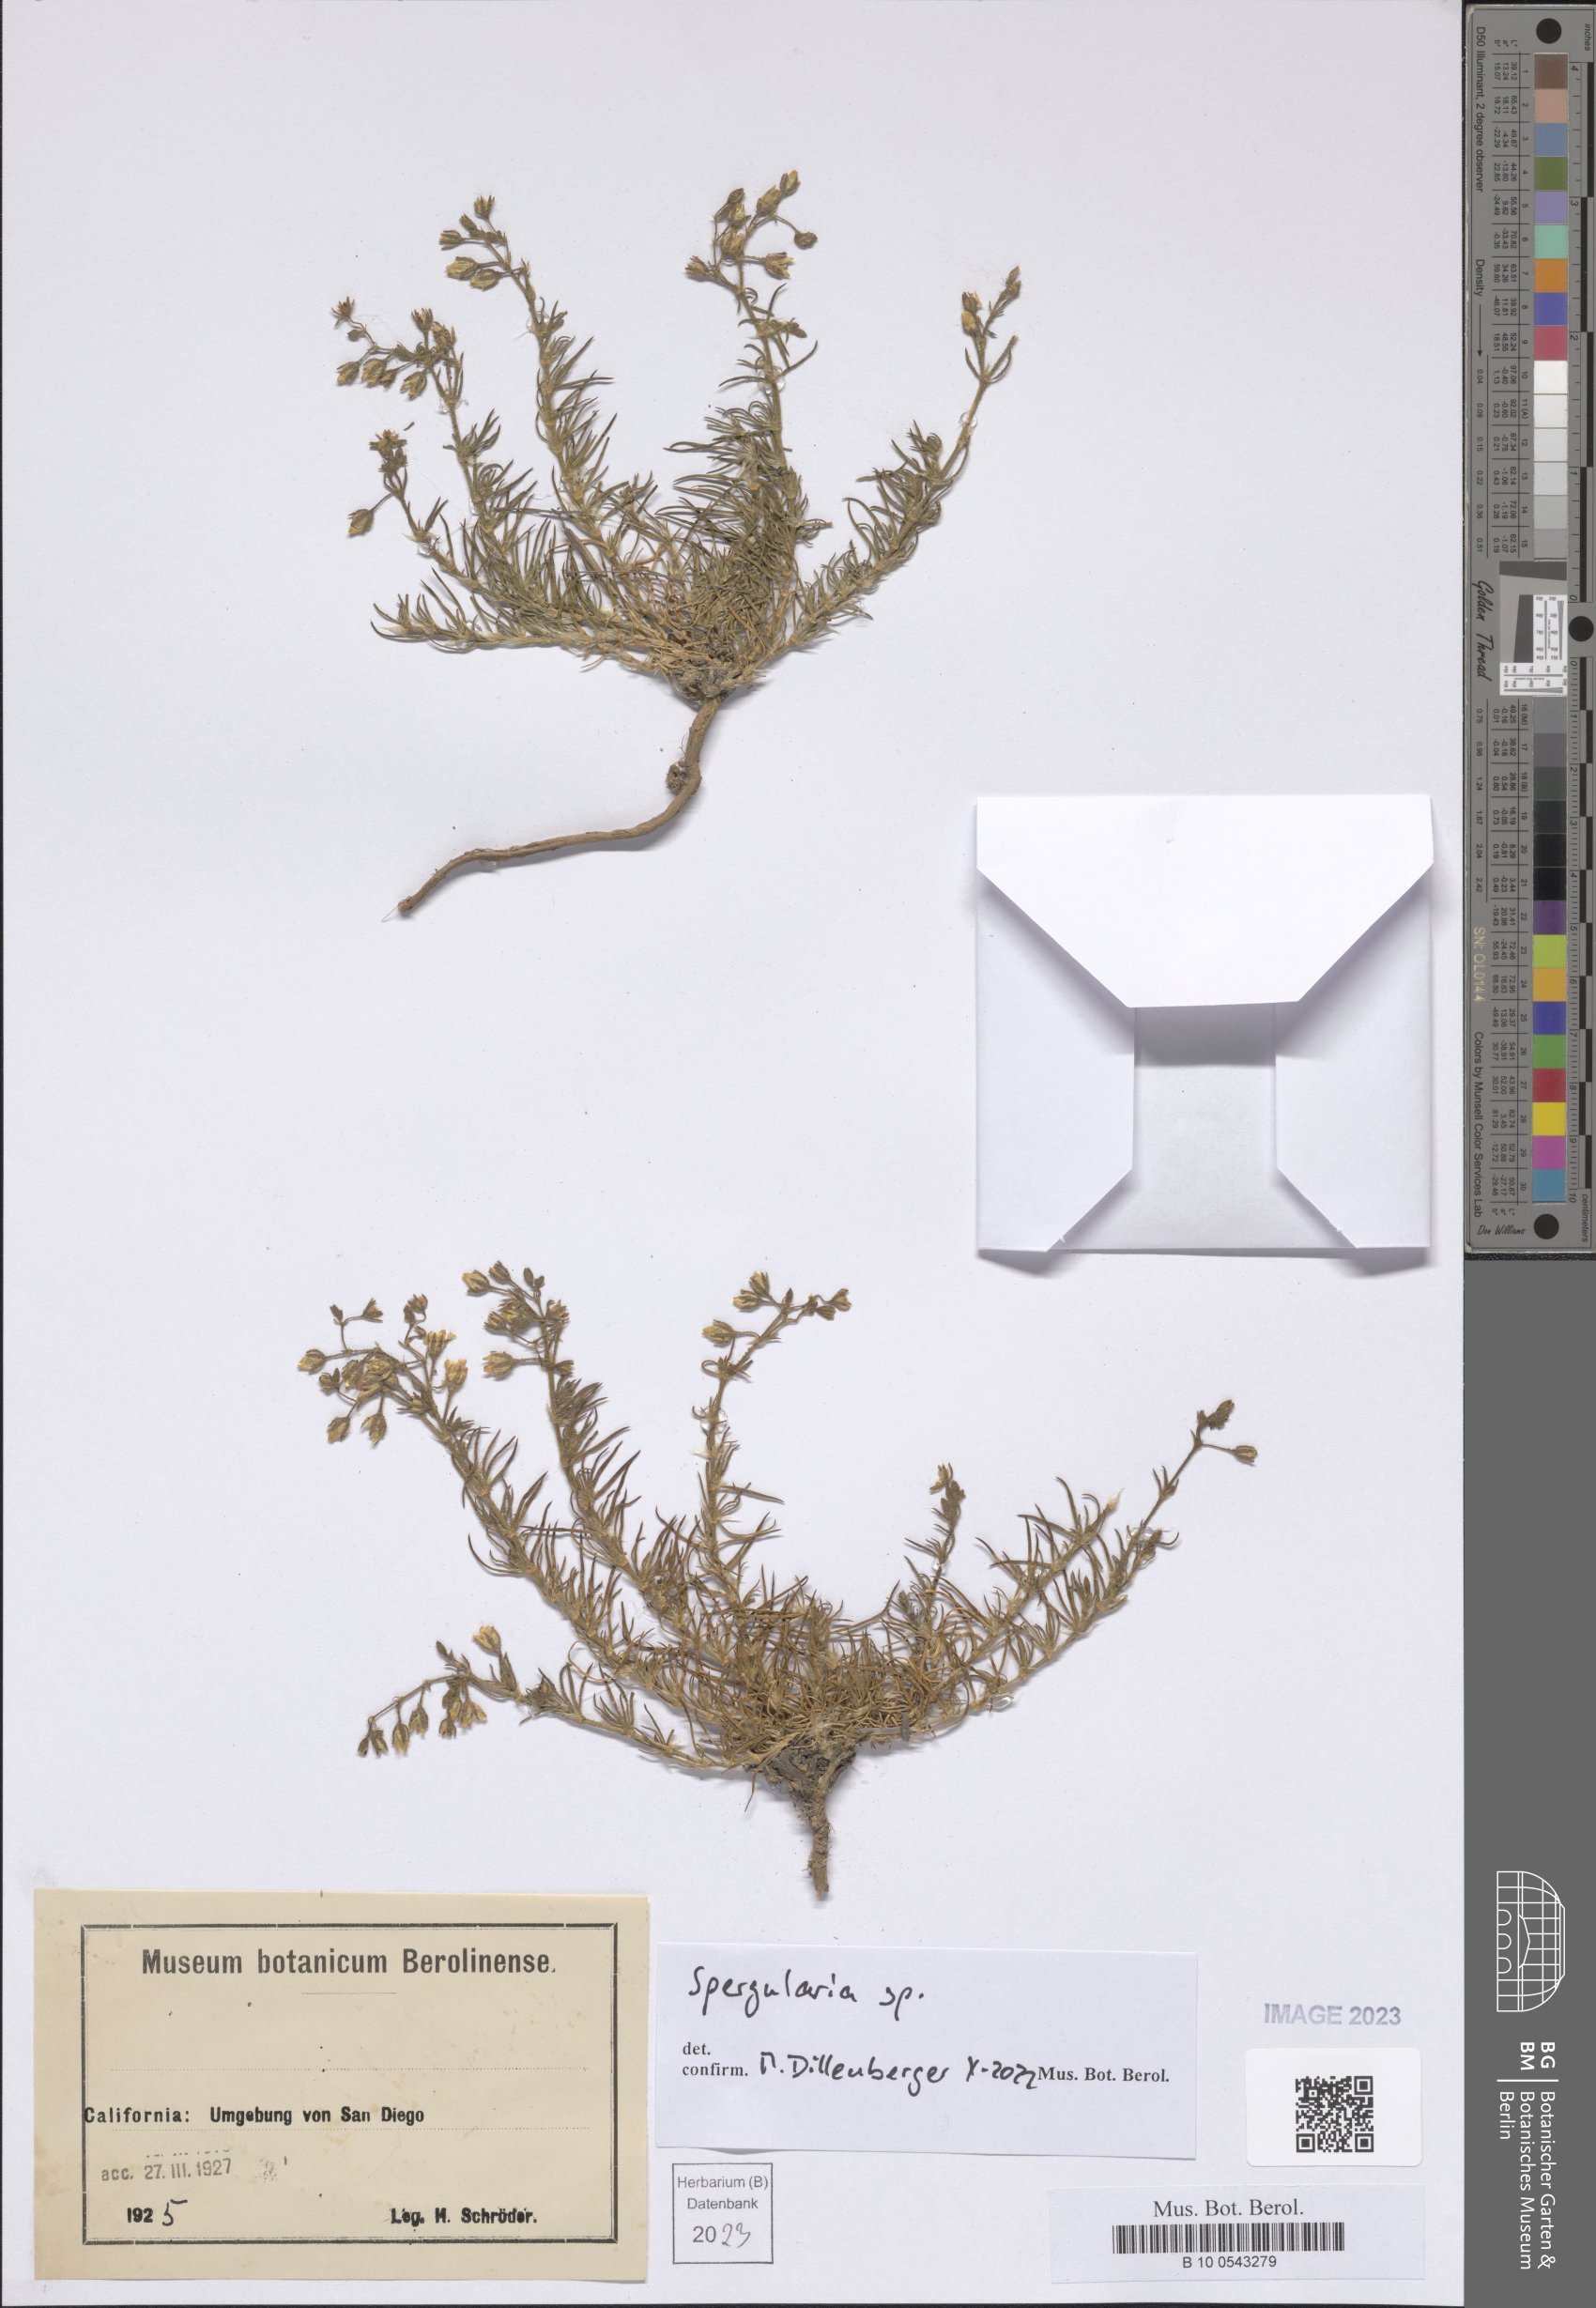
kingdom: Plantae
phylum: Tracheophyta
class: Magnoliopsida
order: Caryophyllales
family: Caryophyllaceae
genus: Spergularia
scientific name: Spergularia
